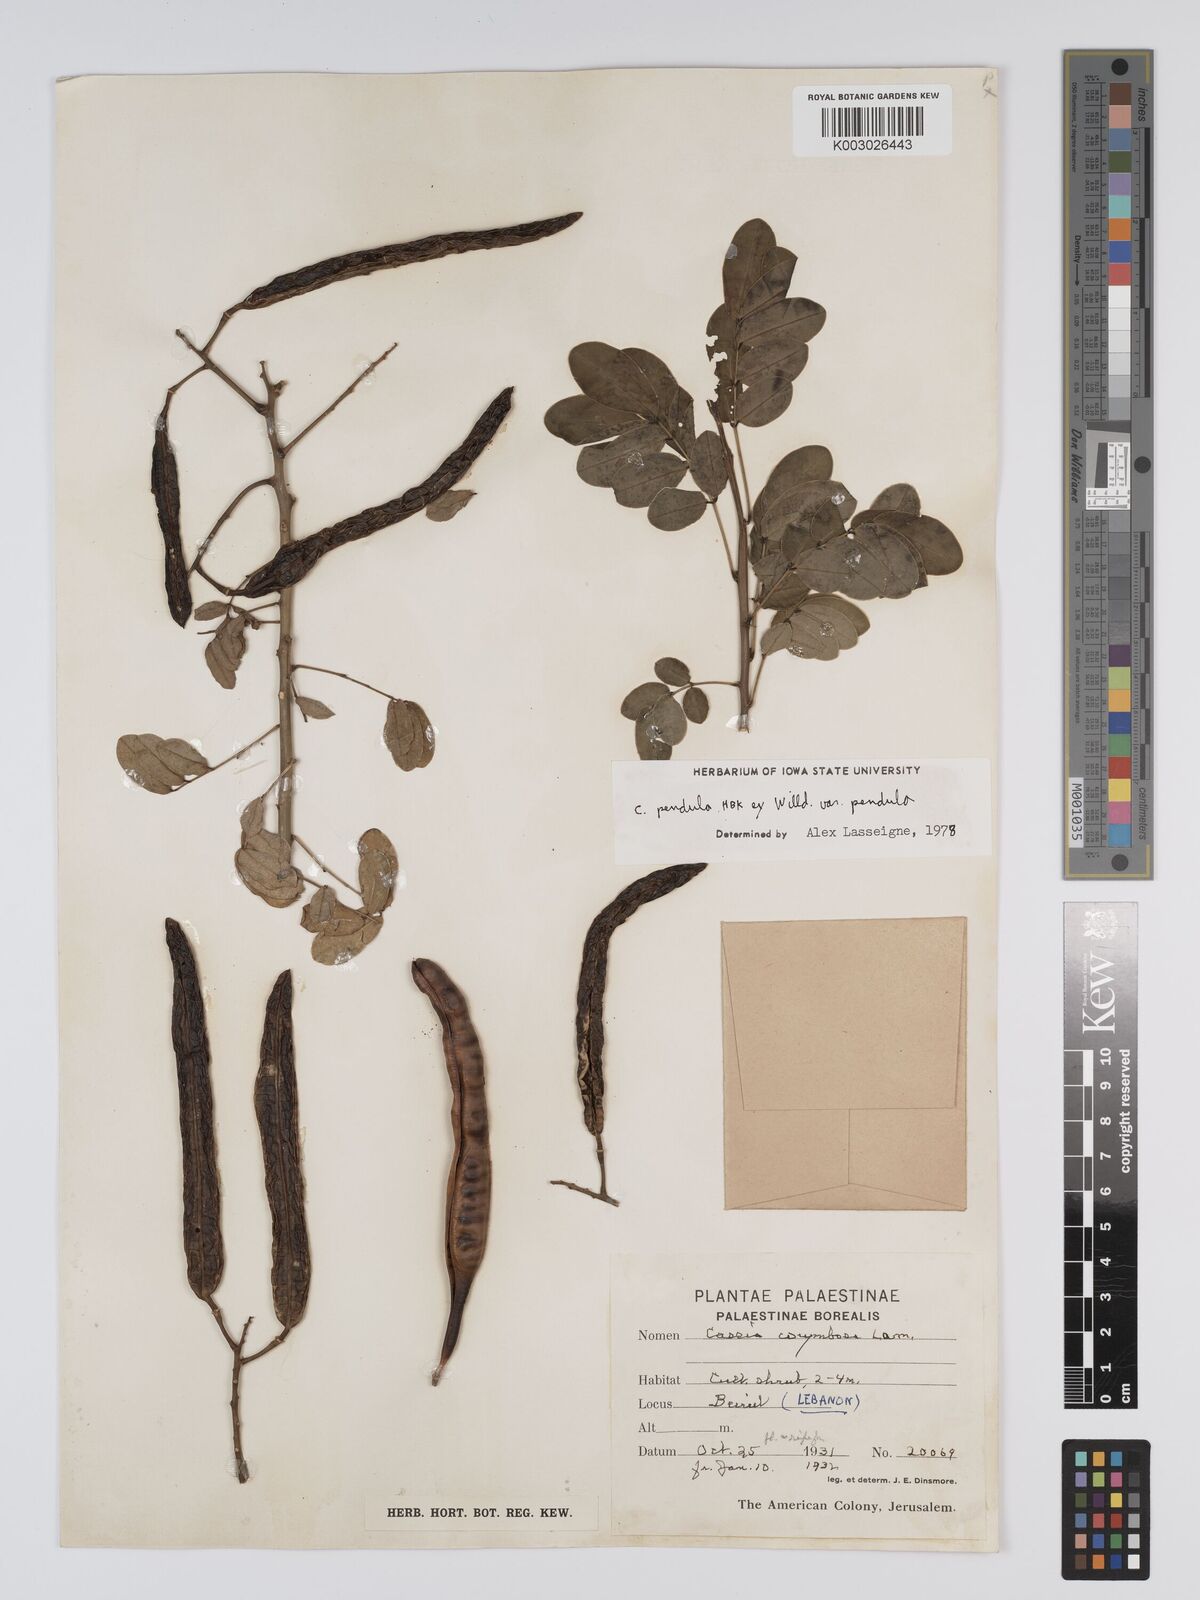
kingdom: Plantae
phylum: Tracheophyta
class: Magnoliopsida
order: Fabales
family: Fabaceae
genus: Senna
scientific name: Senna pendula
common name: Easter cassia
